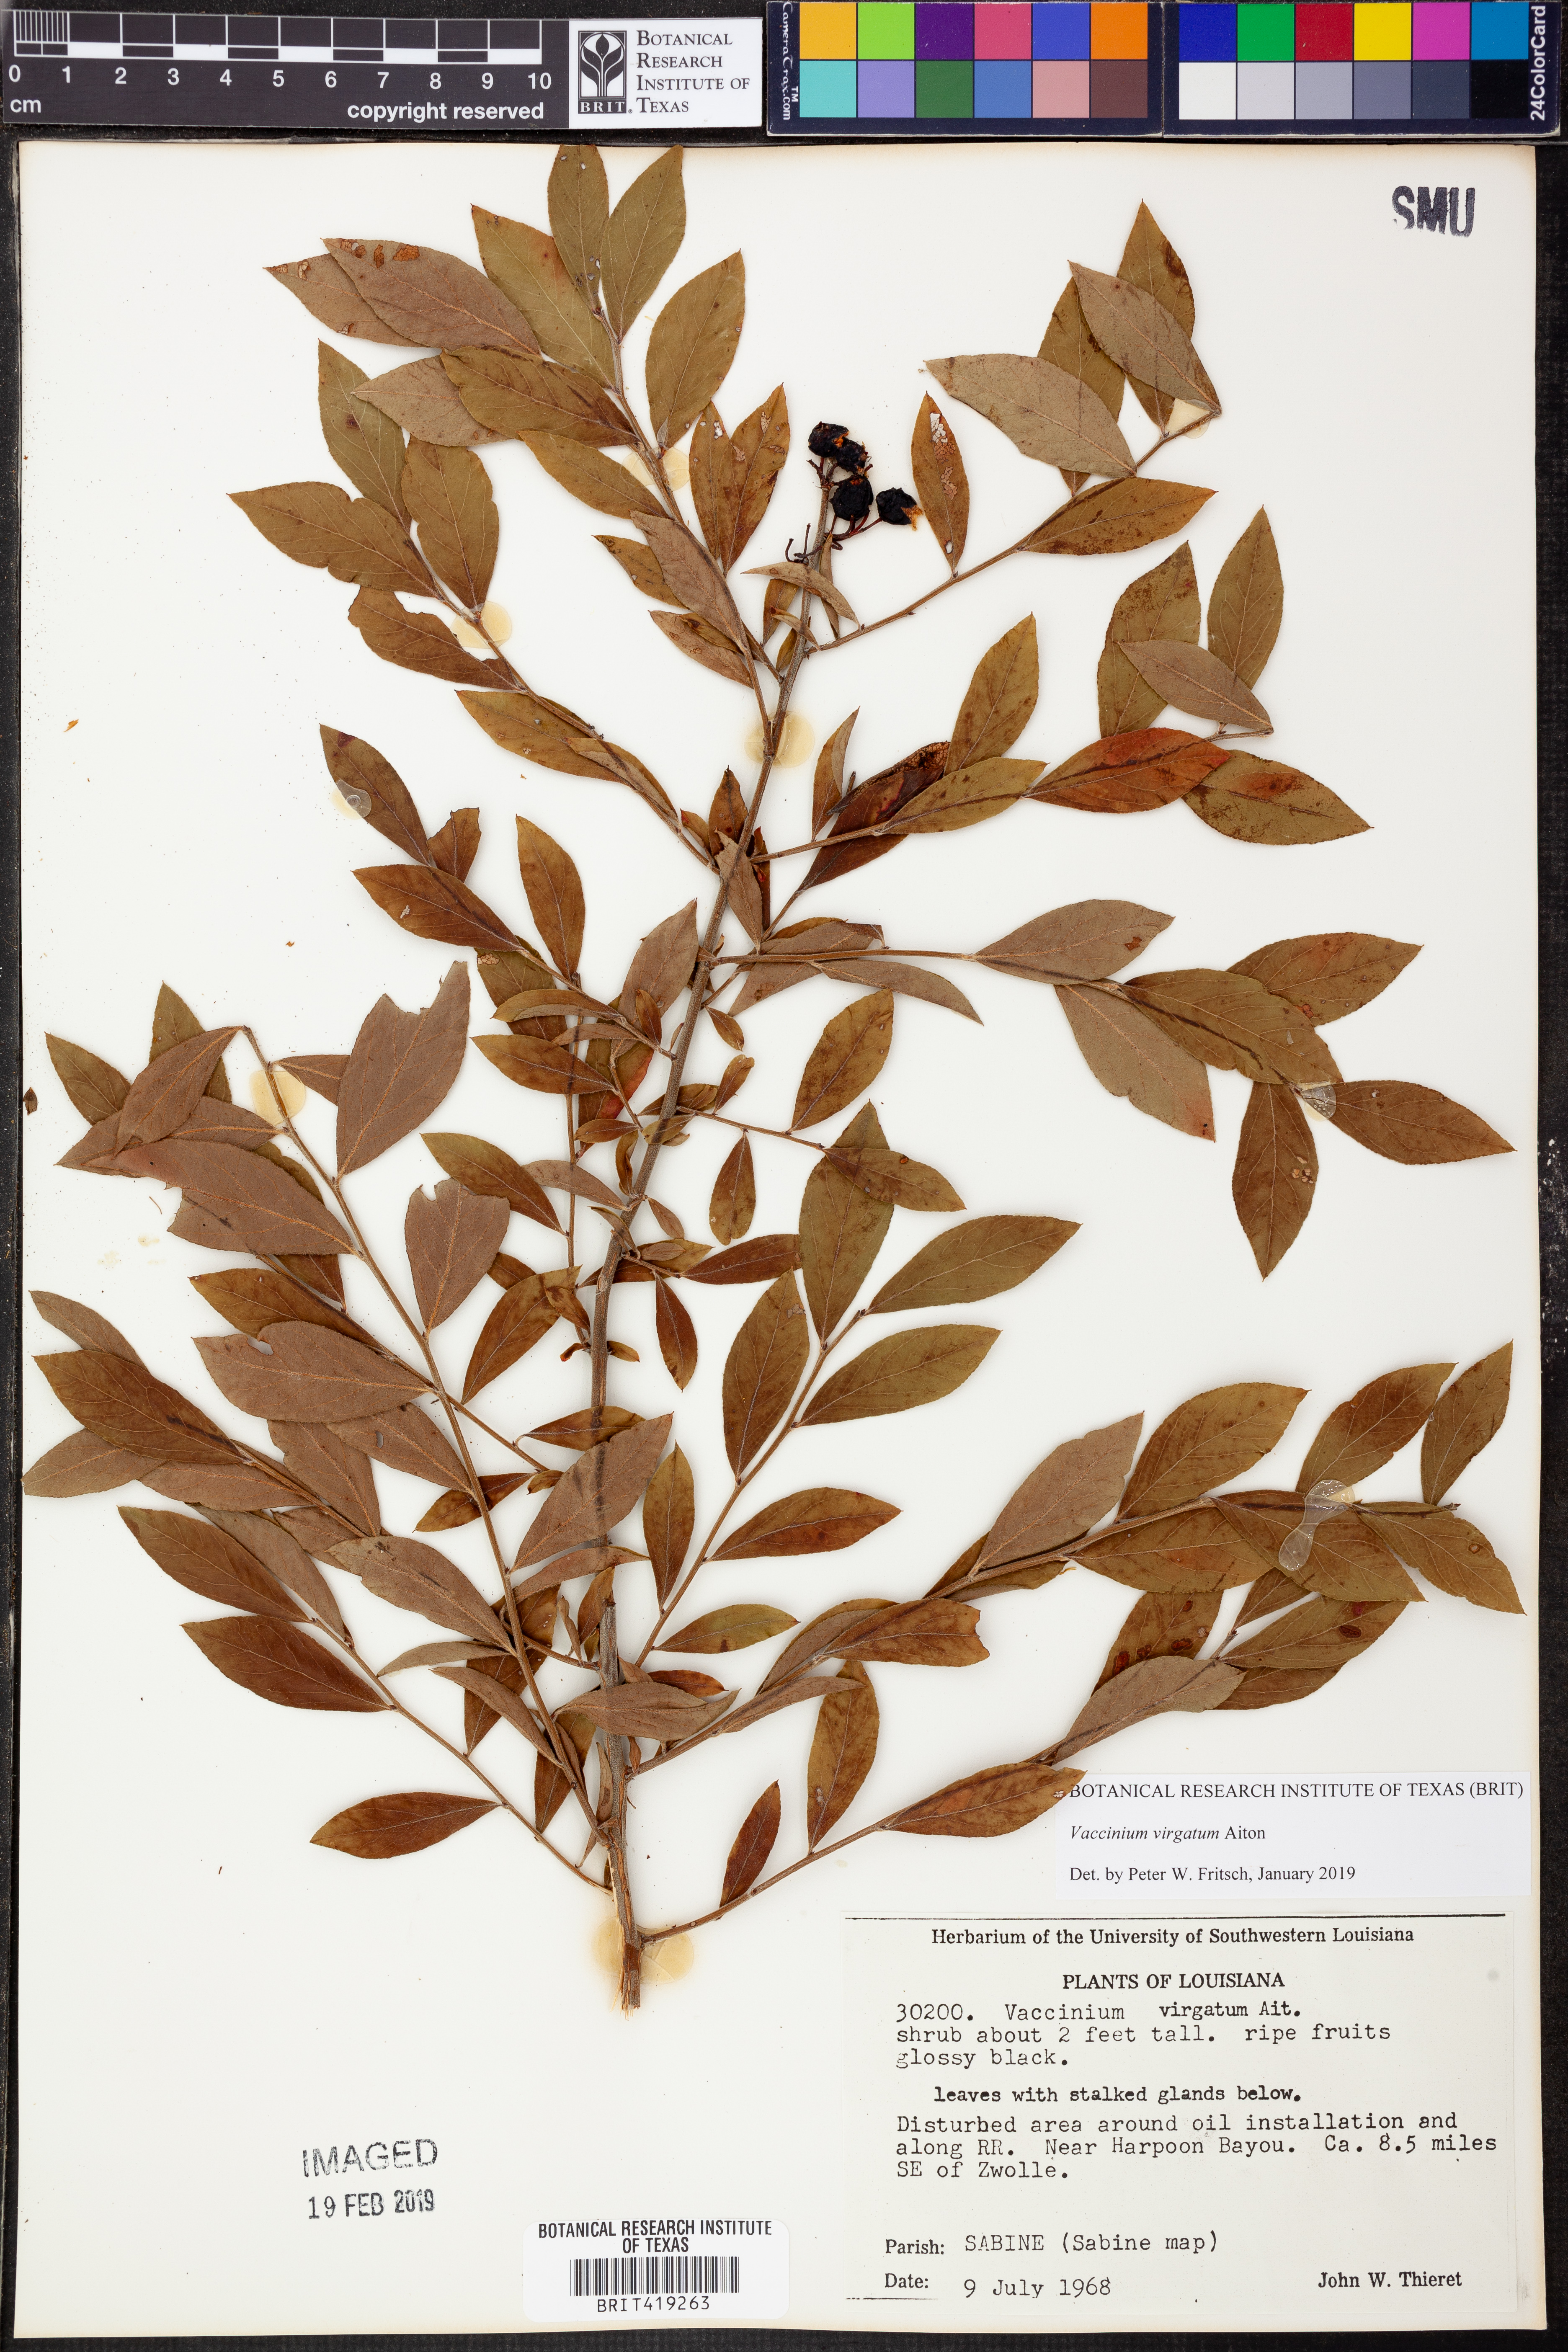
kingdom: Plantae
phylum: Tracheophyta
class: Magnoliopsida
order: Ericales
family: Ericaceae
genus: Vaccinium
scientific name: Vaccinium corymbosum
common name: Blueberry
